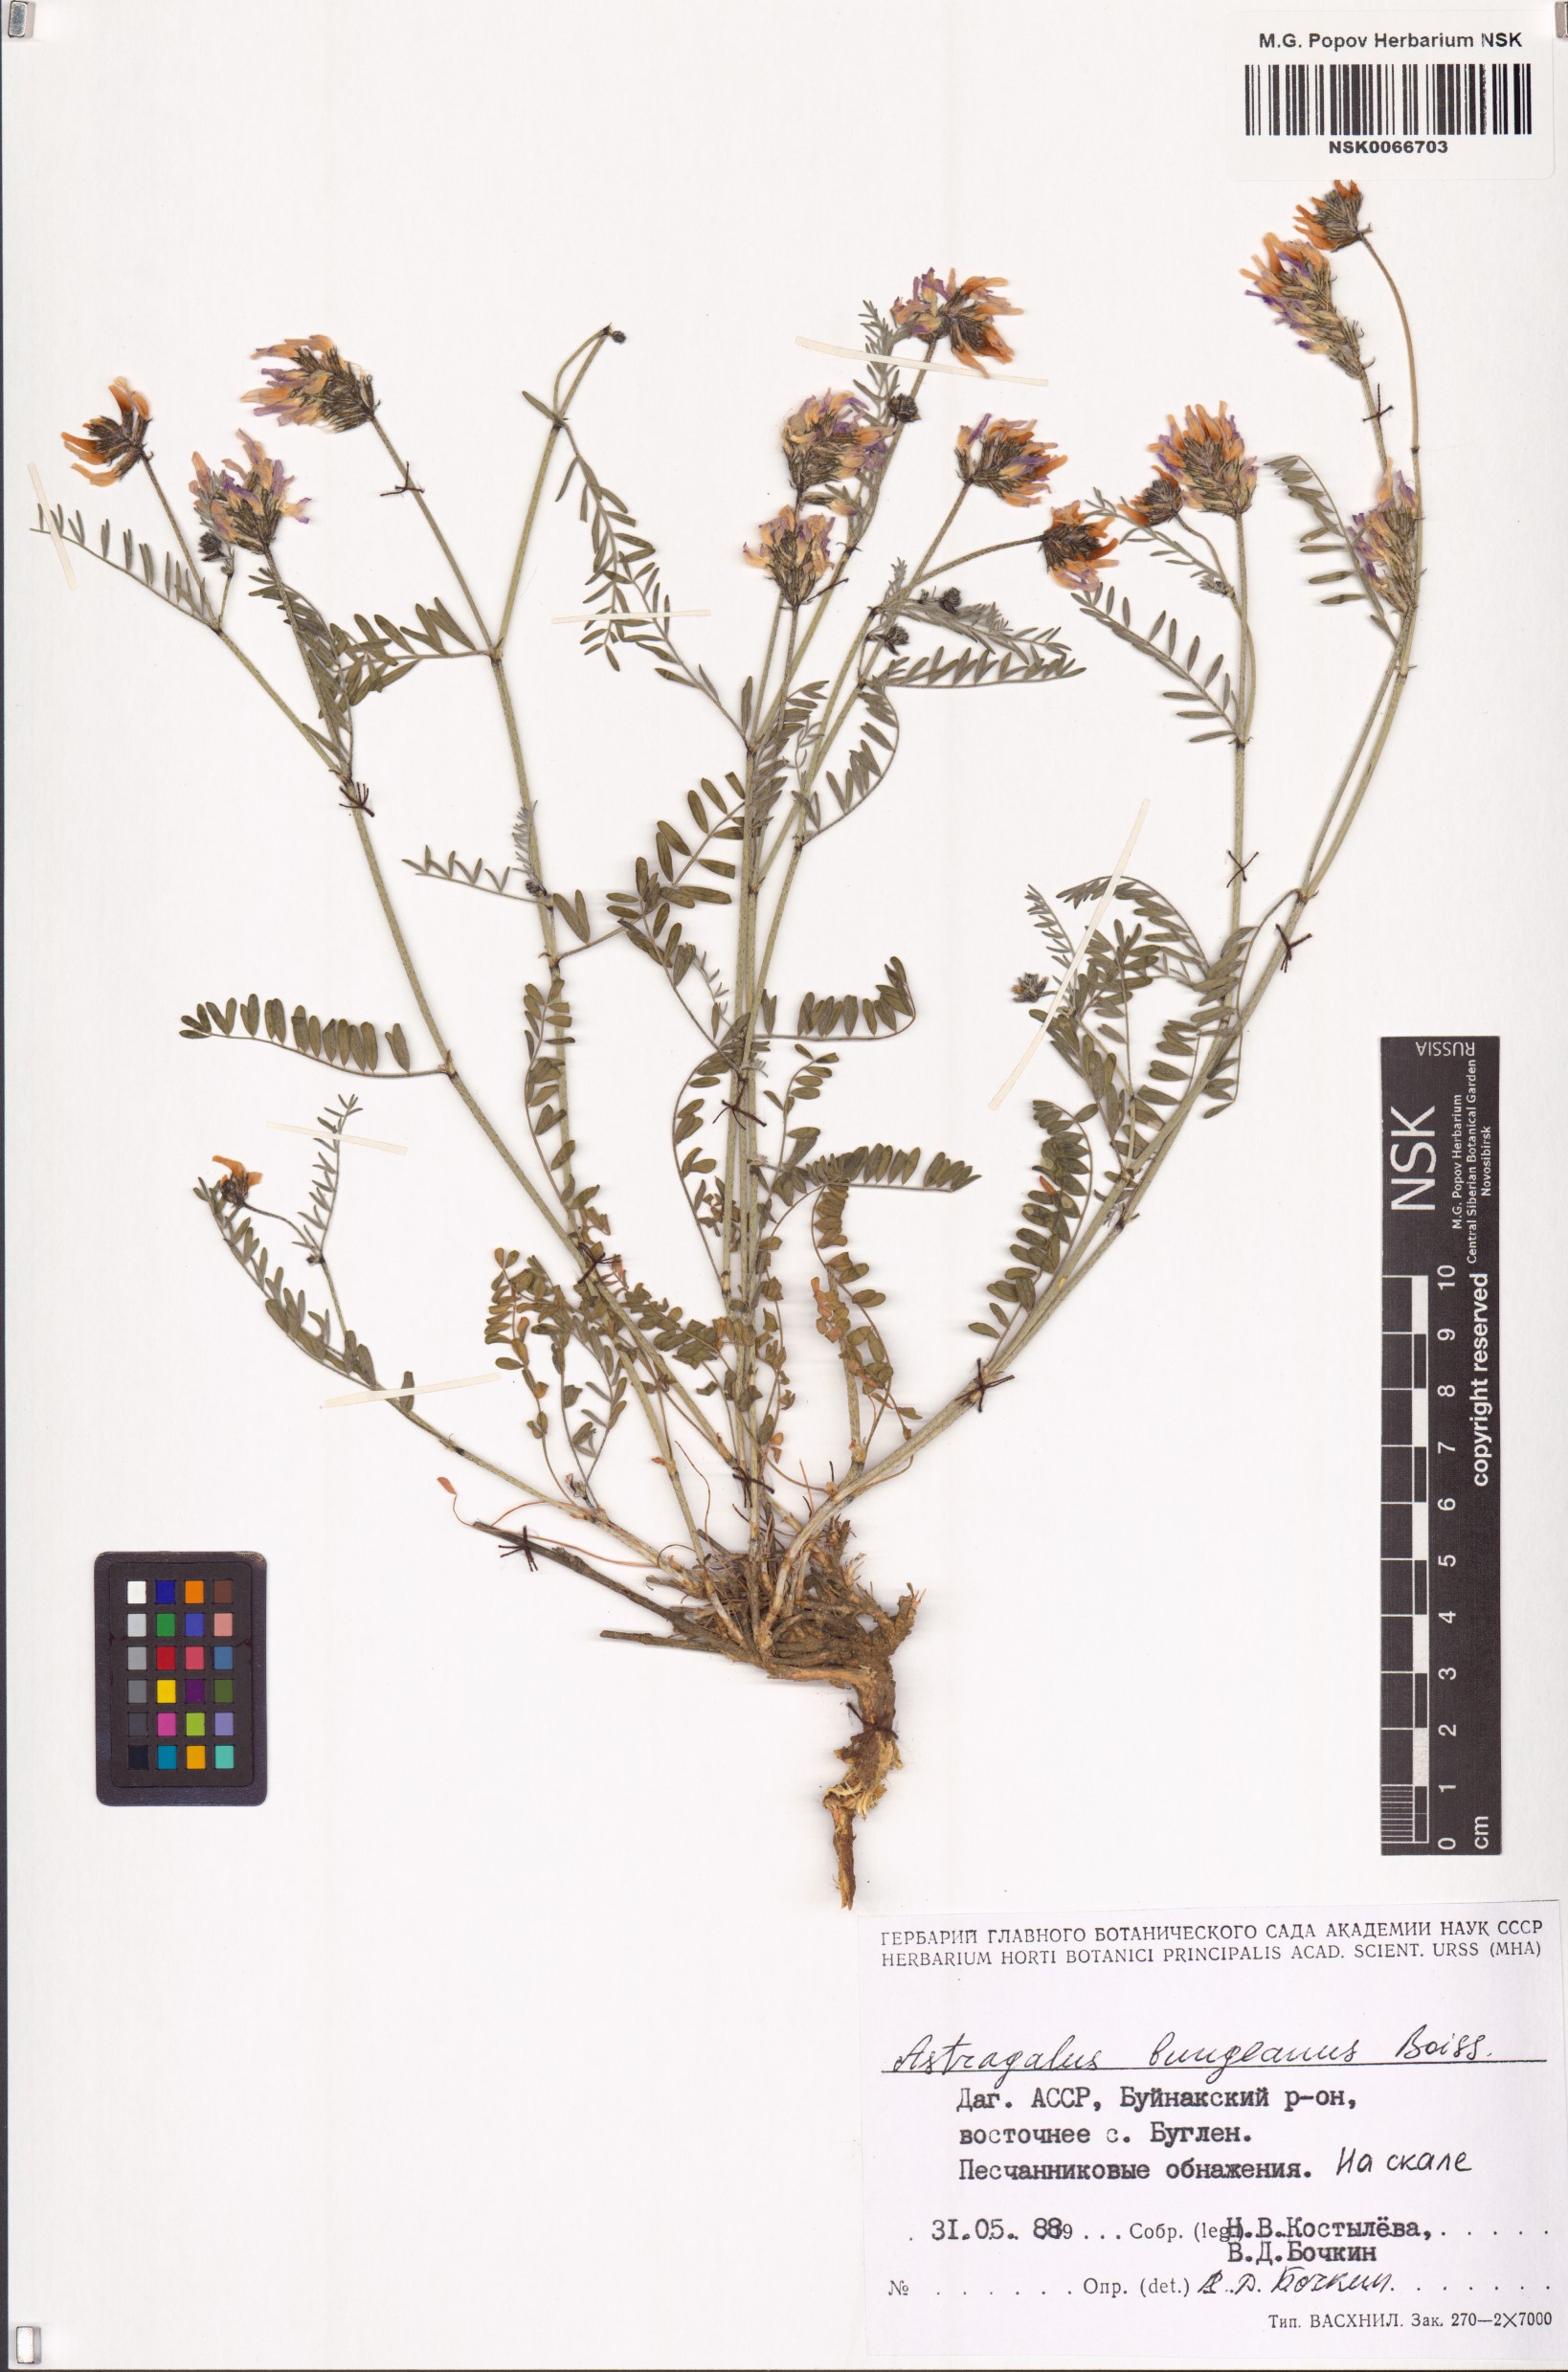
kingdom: Plantae
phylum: Tracheophyta
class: Magnoliopsida
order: Fabales
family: Fabaceae
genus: Astragalus
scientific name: Astragalus bungeanus
